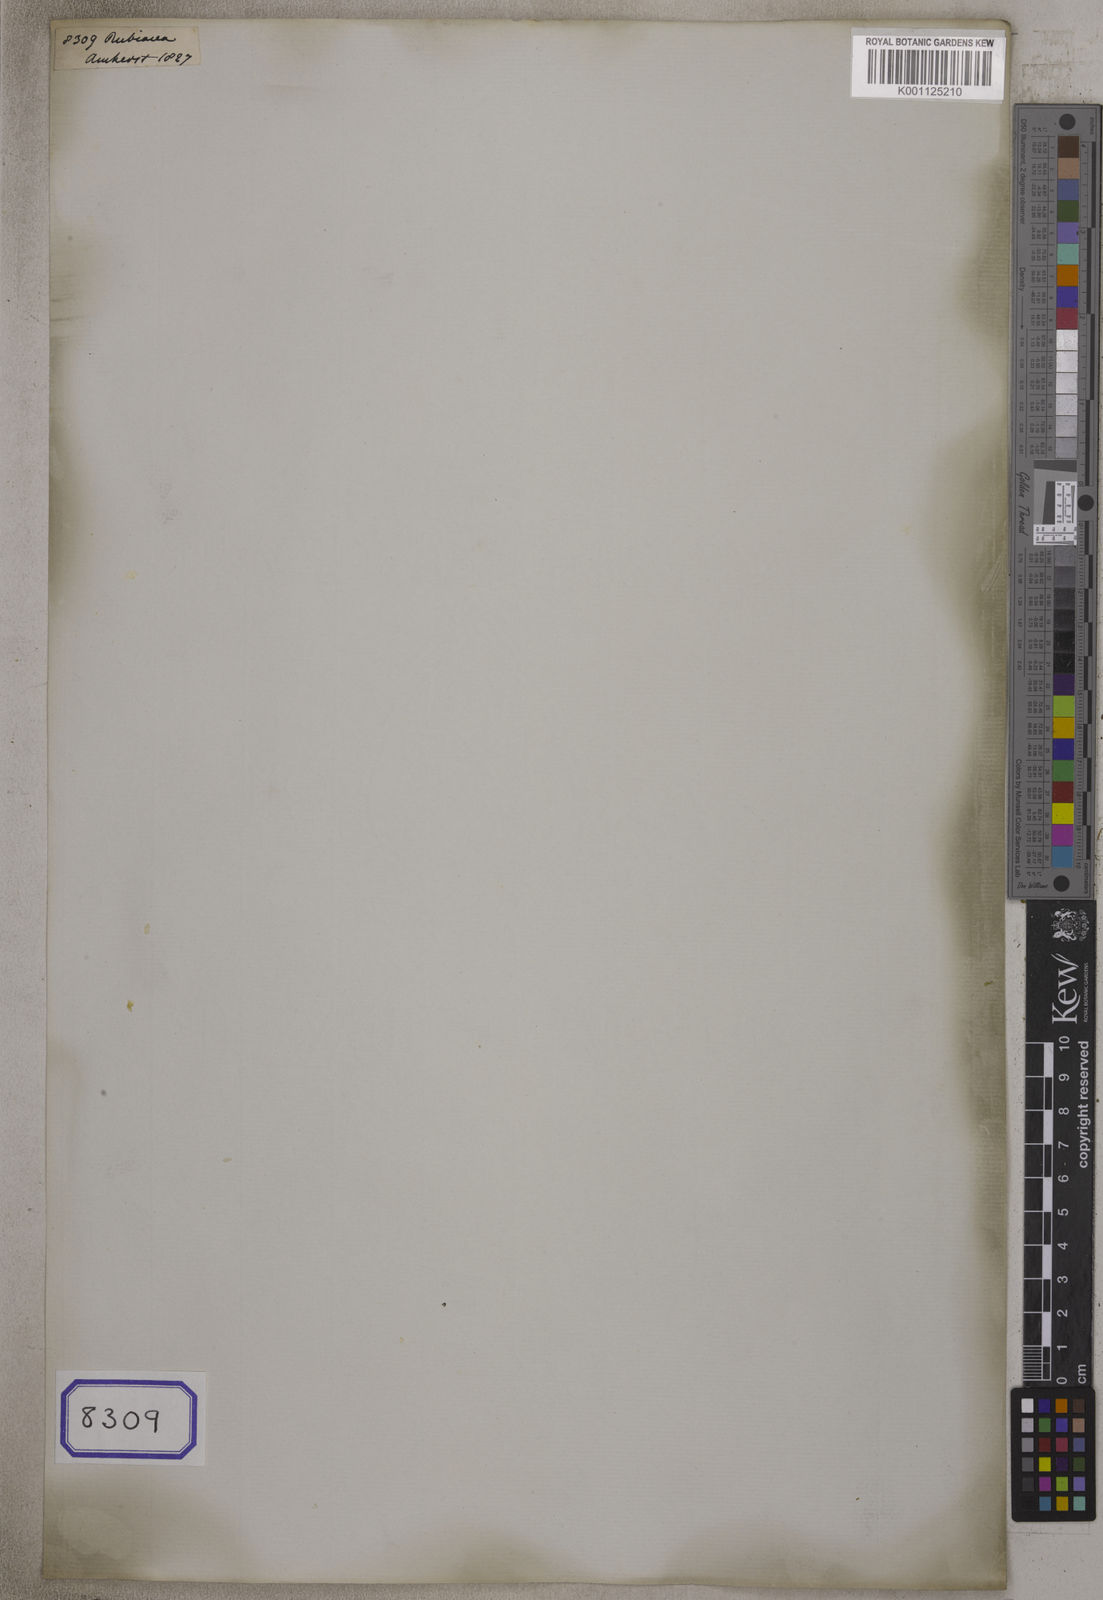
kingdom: Plantae
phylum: Tracheophyta
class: Magnoliopsida
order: Gentianales
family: Rubiaceae
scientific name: Rubiaceae
